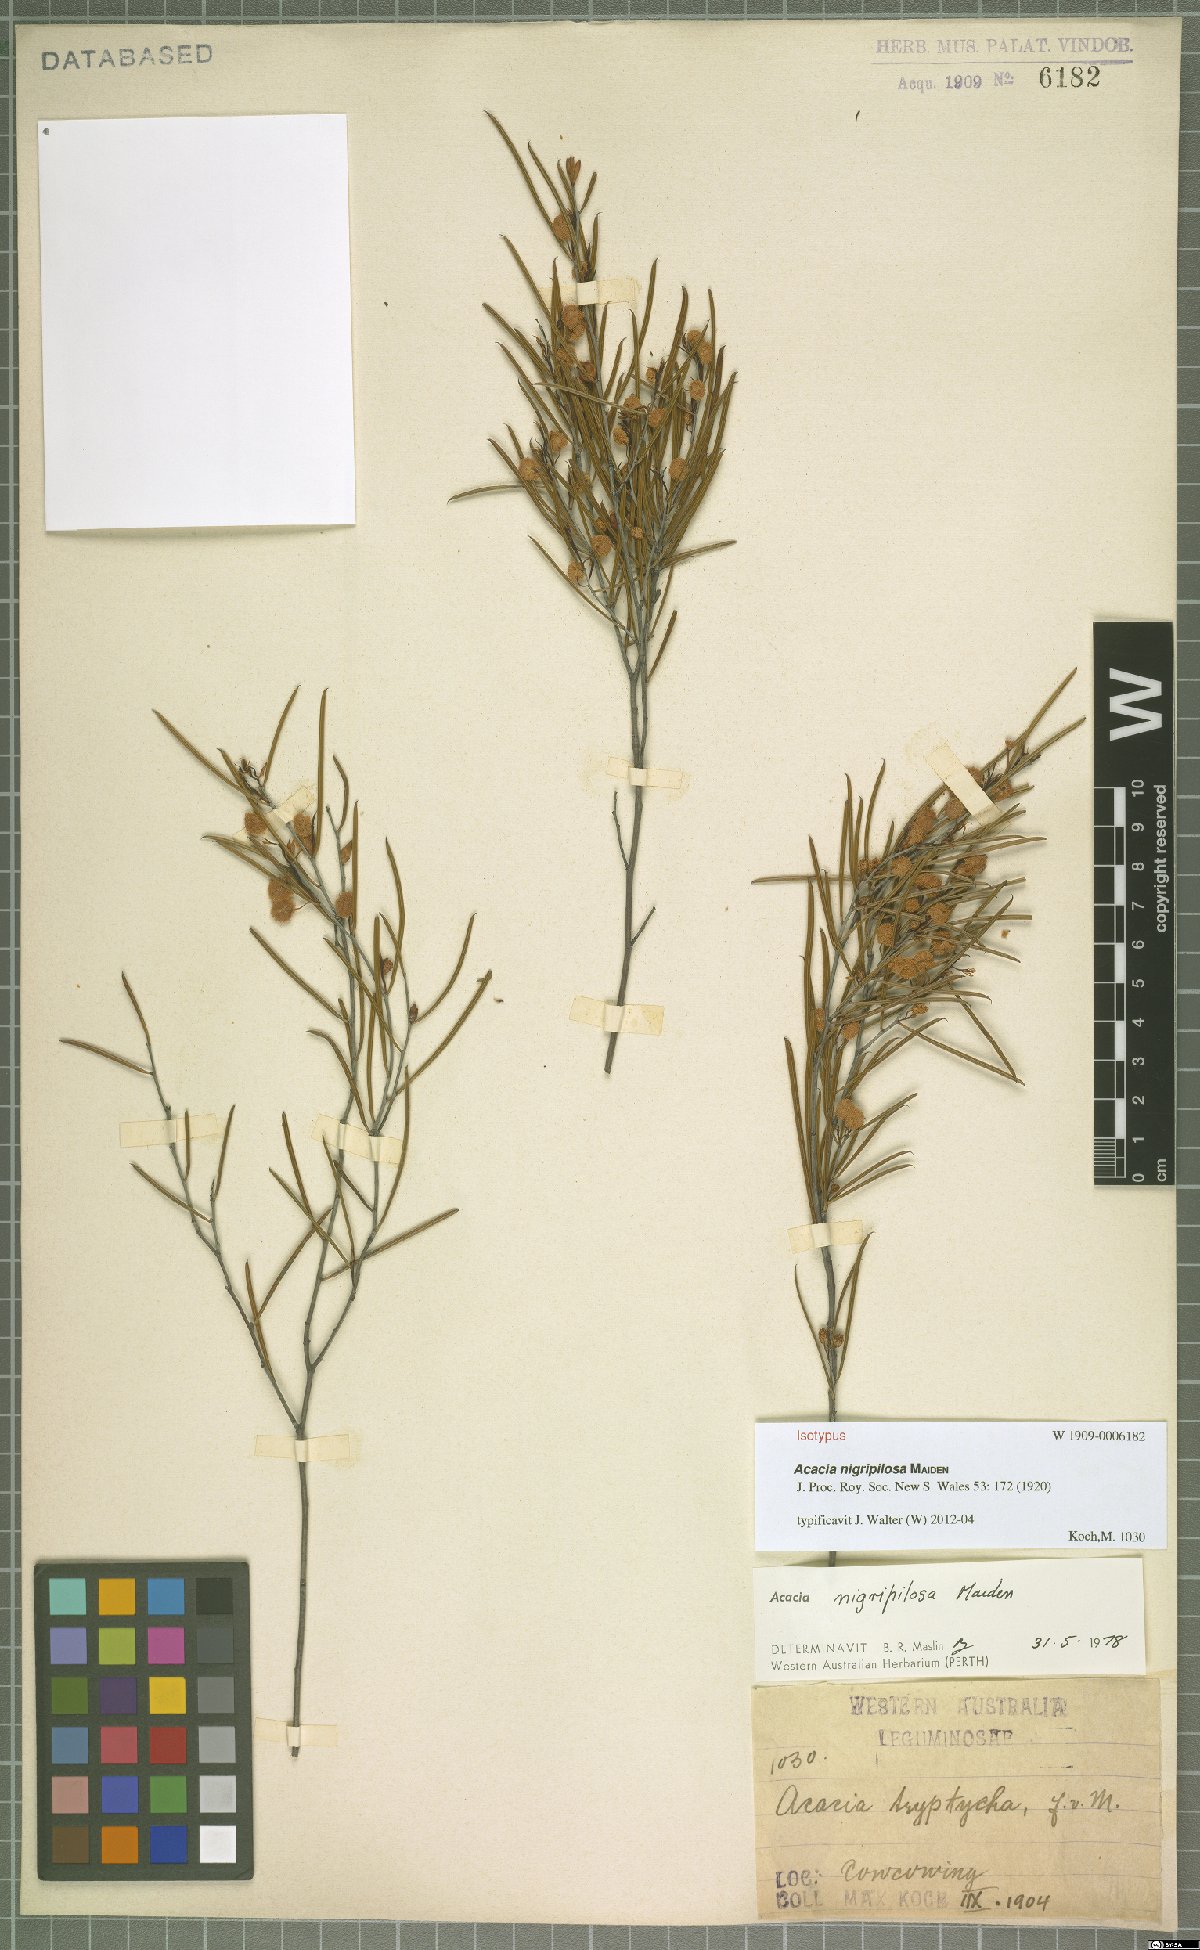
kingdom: Plantae
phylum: Tracheophyta
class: Magnoliopsida
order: Fabales
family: Fabaceae
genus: Acacia
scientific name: Acacia nigripilosa
